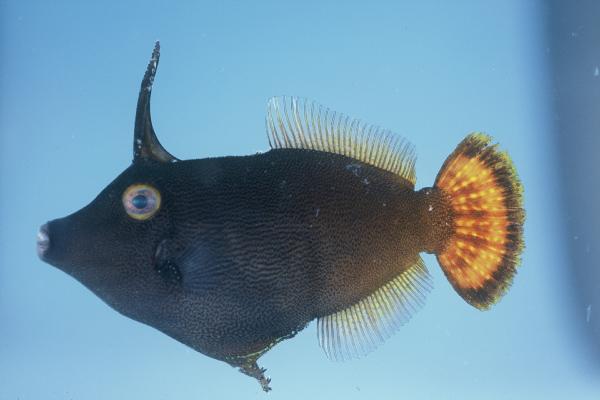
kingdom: Animalia
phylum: Chordata
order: Tetraodontiformes
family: Monacanthidae
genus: Pervagor
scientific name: Pervagor aspricaudus
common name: Orangetail filefish
